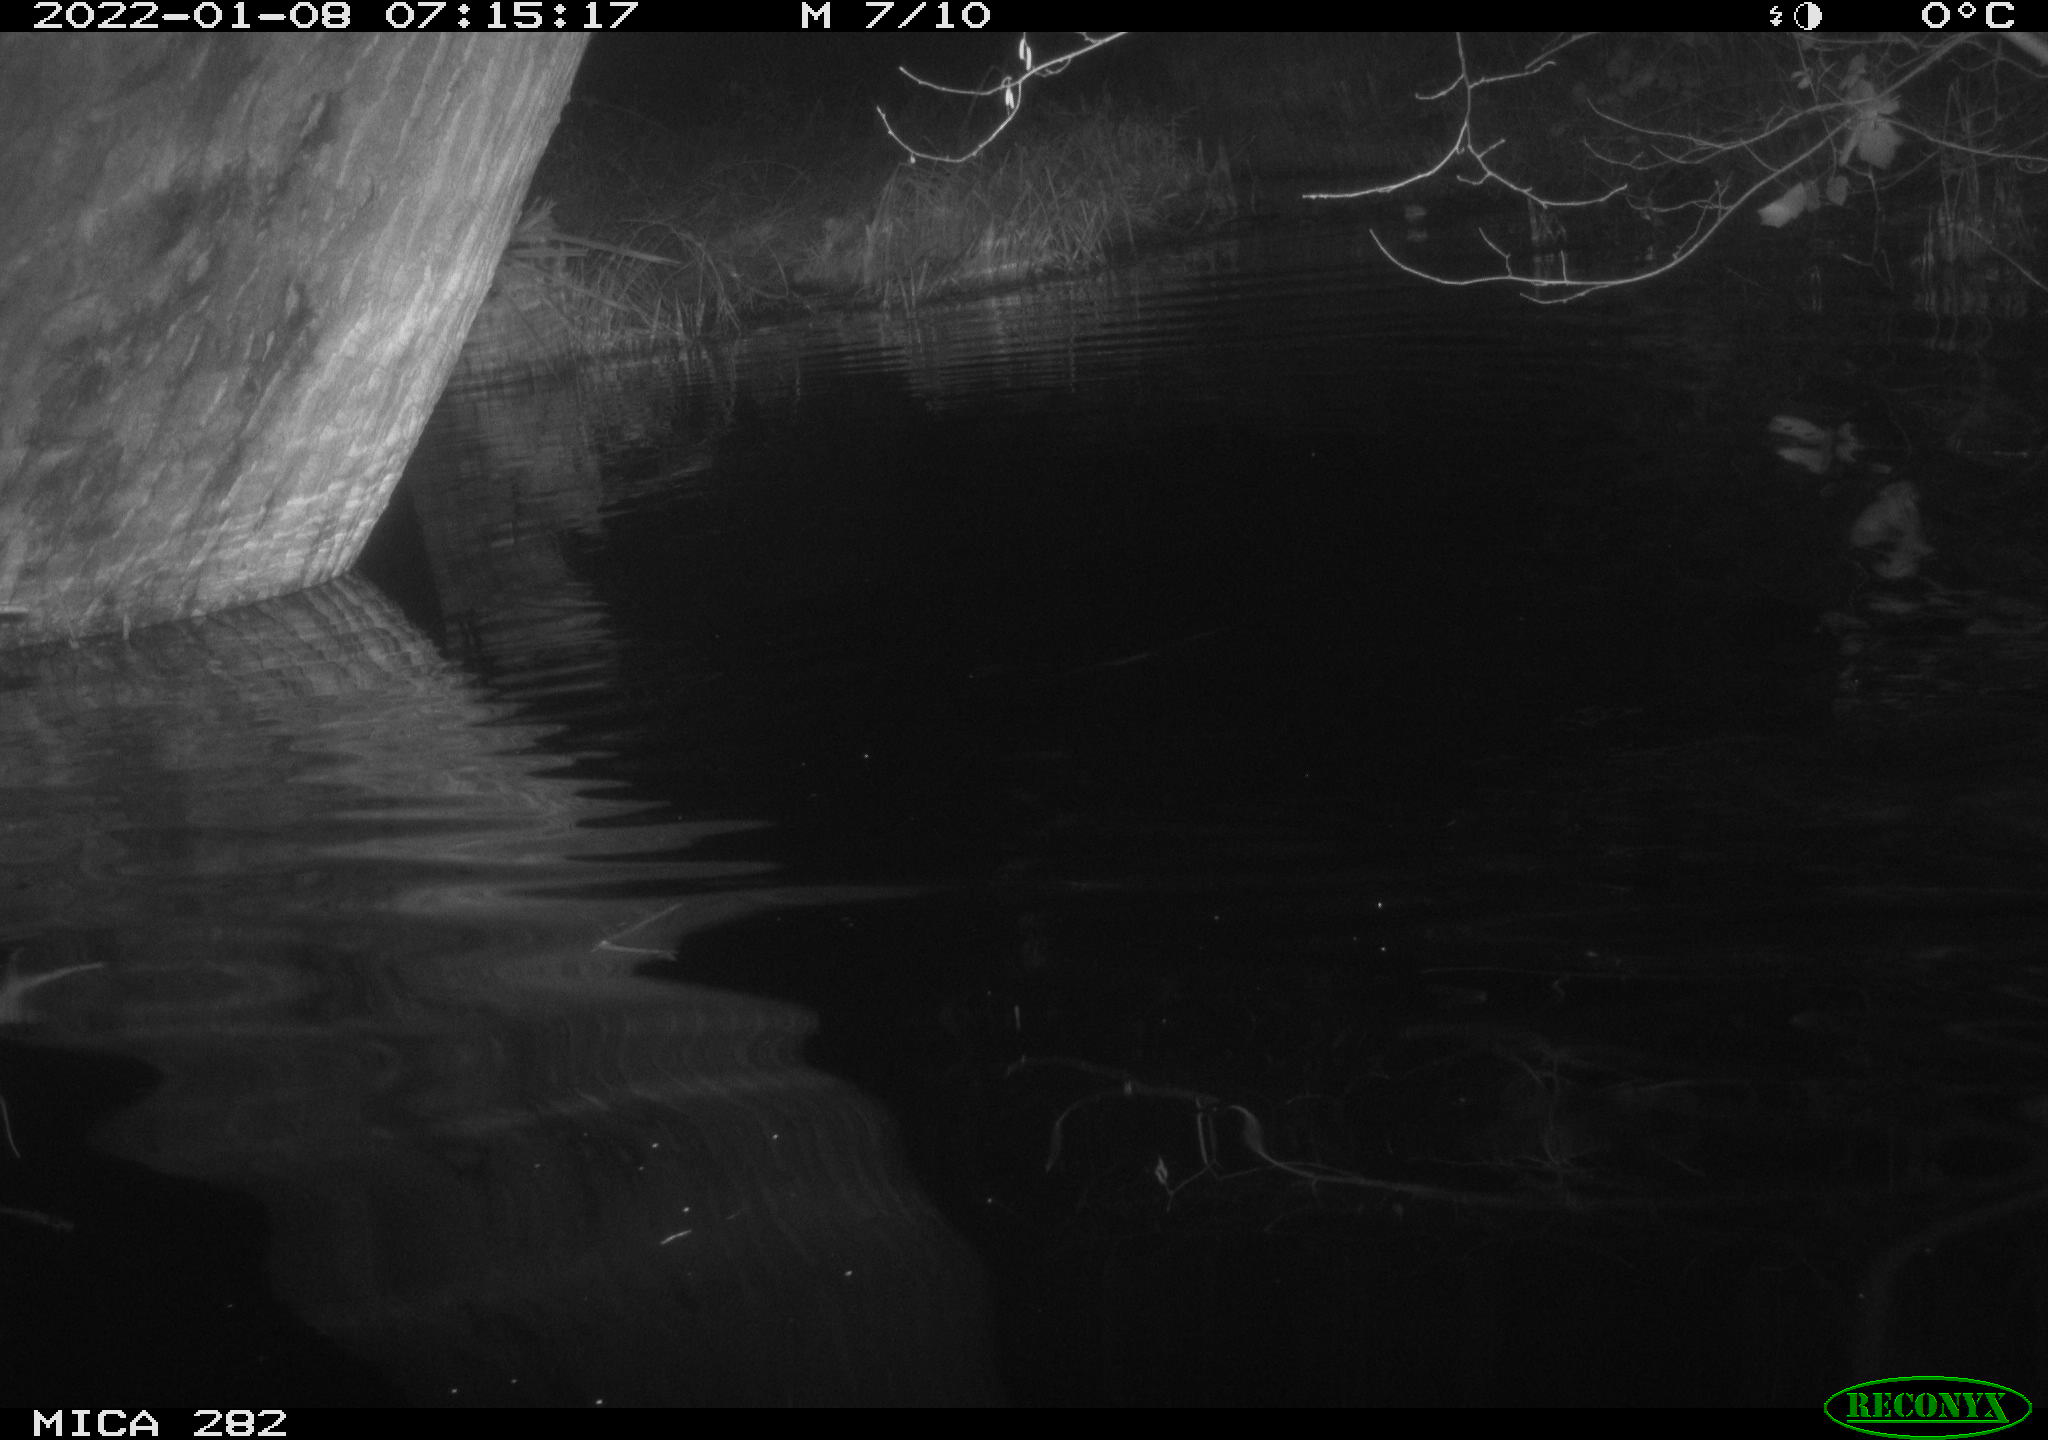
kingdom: Animalia
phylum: Chordata
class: Mammalia
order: Rodentia
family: Castoridae
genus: Castor
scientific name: Castor fiber
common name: Eurasian beaver
